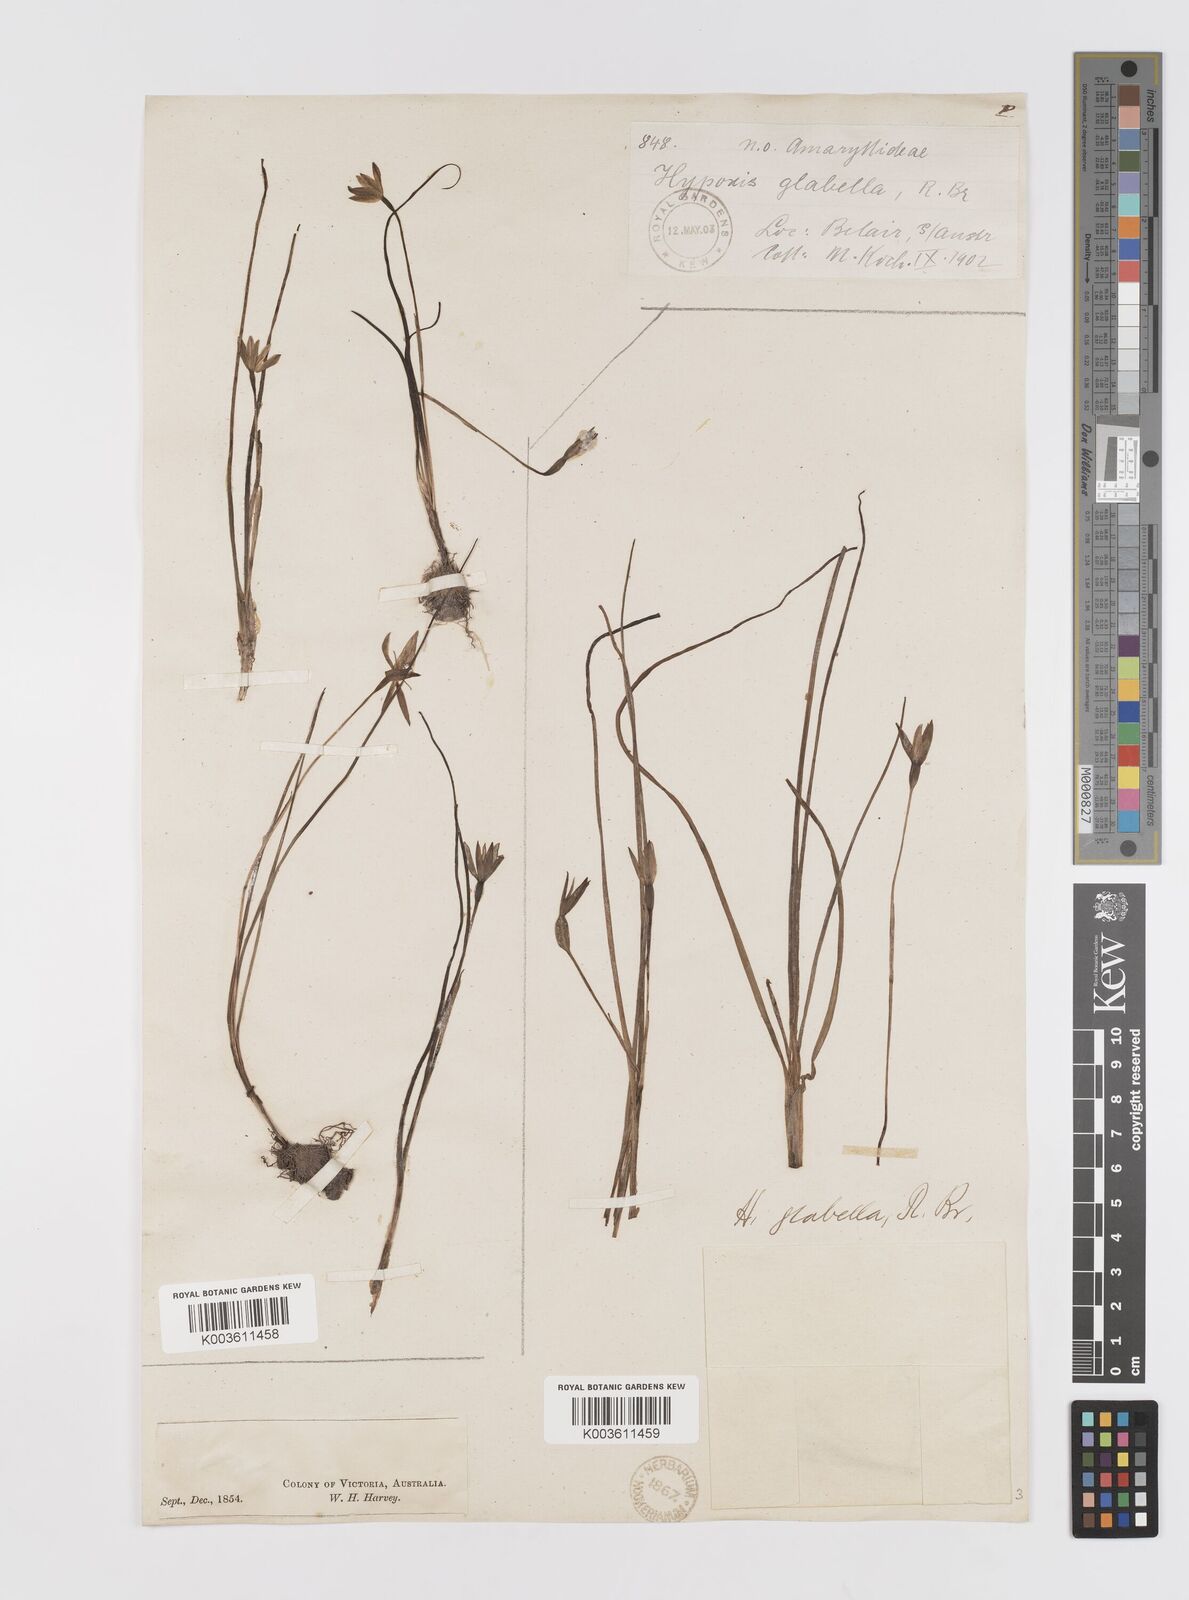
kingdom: Plantae
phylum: Tracheophyta
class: Liliopsida
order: Asparagales
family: Hypoxidaceae
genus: Pauridia
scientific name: Pauridia glabella
